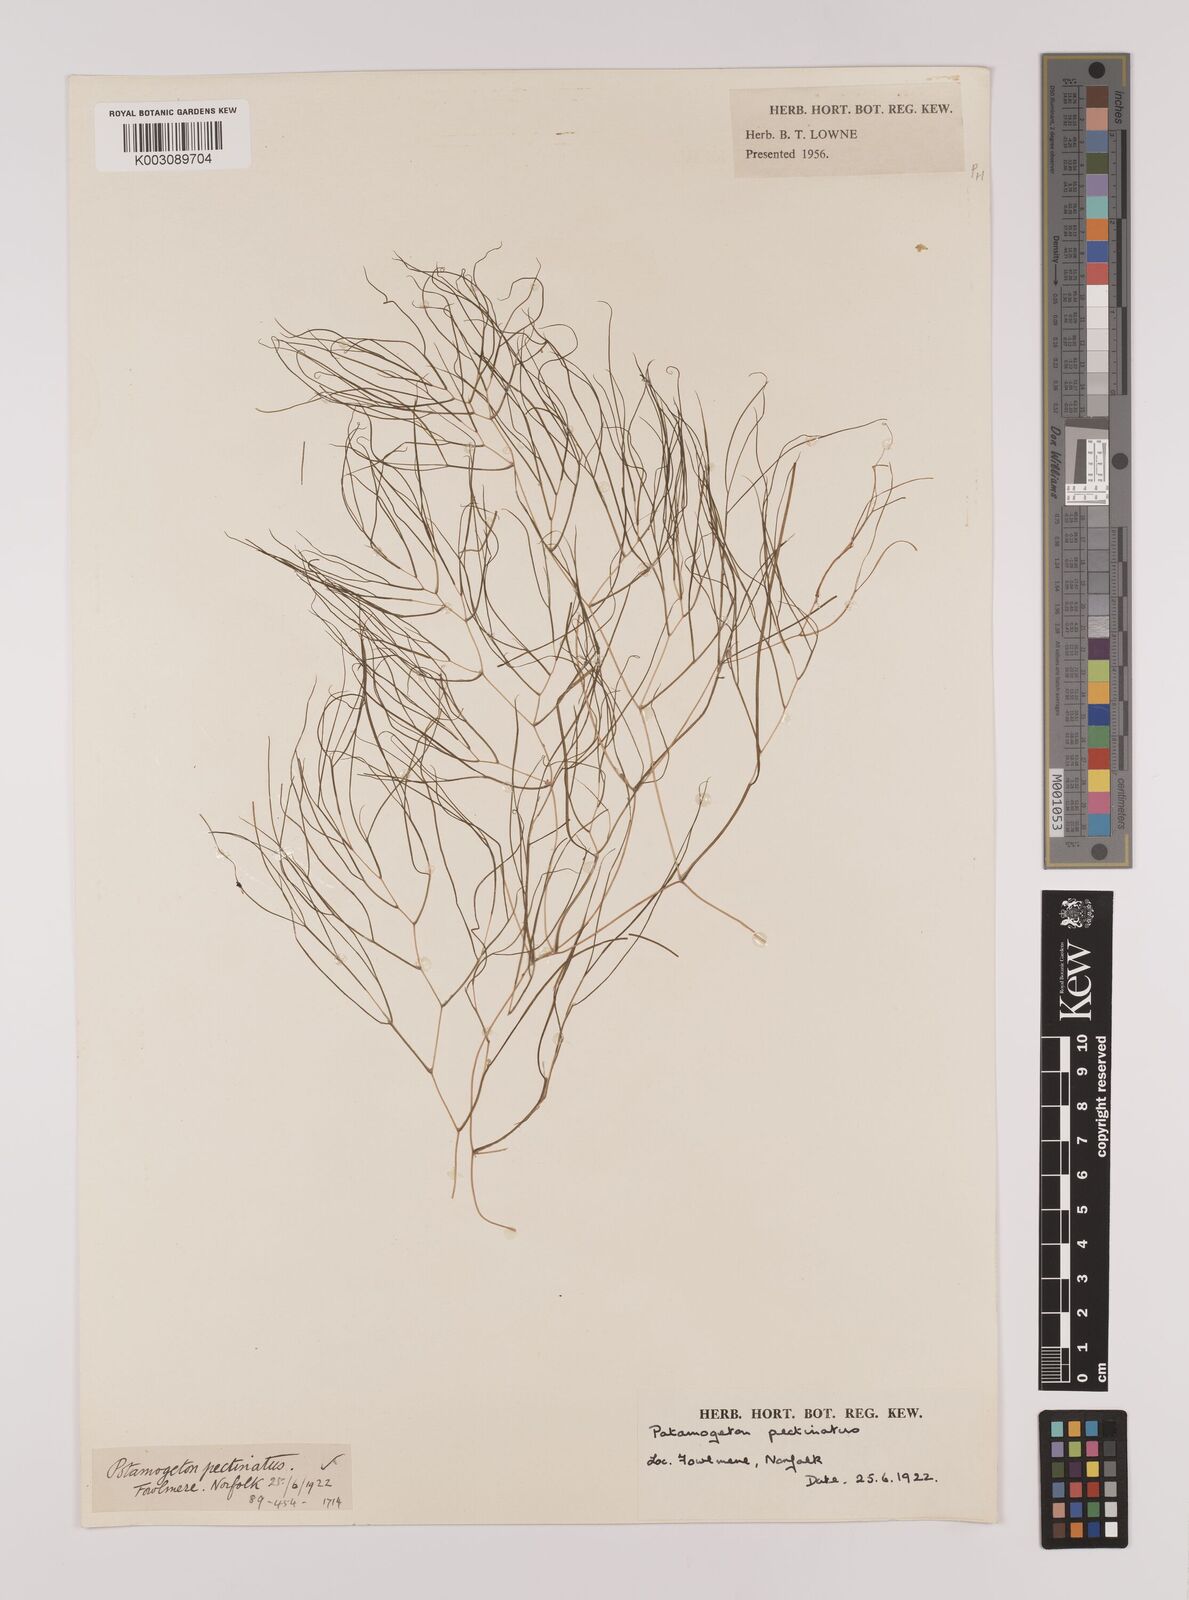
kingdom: Plantae
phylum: Tracheophyta
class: Liliopsida
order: Alismatales
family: Potamogetonaceae
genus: Stuckenia
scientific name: Stuckenia pectinata
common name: Sago pondweed
